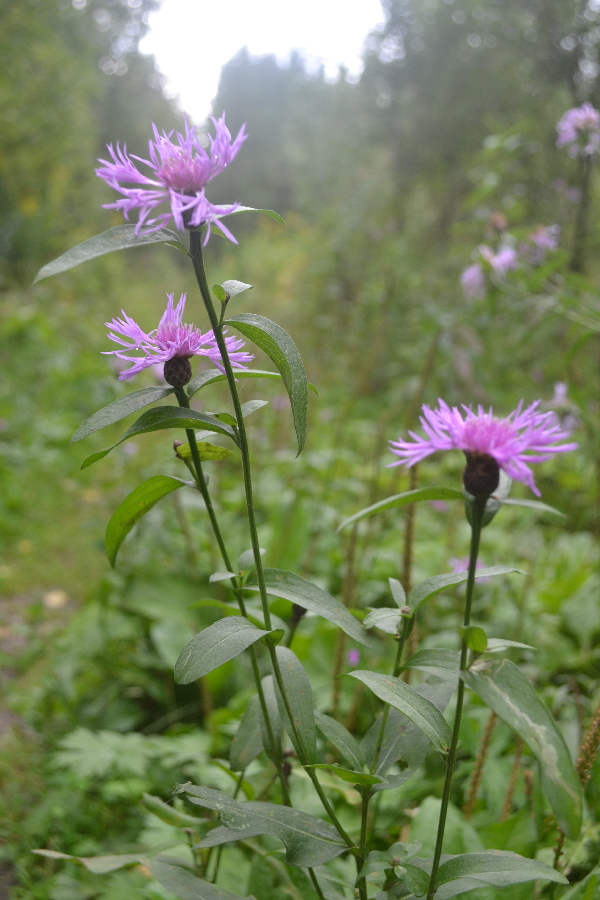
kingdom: Plantae
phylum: Tracheophyta
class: Magnoliopsida
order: Asterales
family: Asteraceae
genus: Centaurea
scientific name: Centaurea jacea
